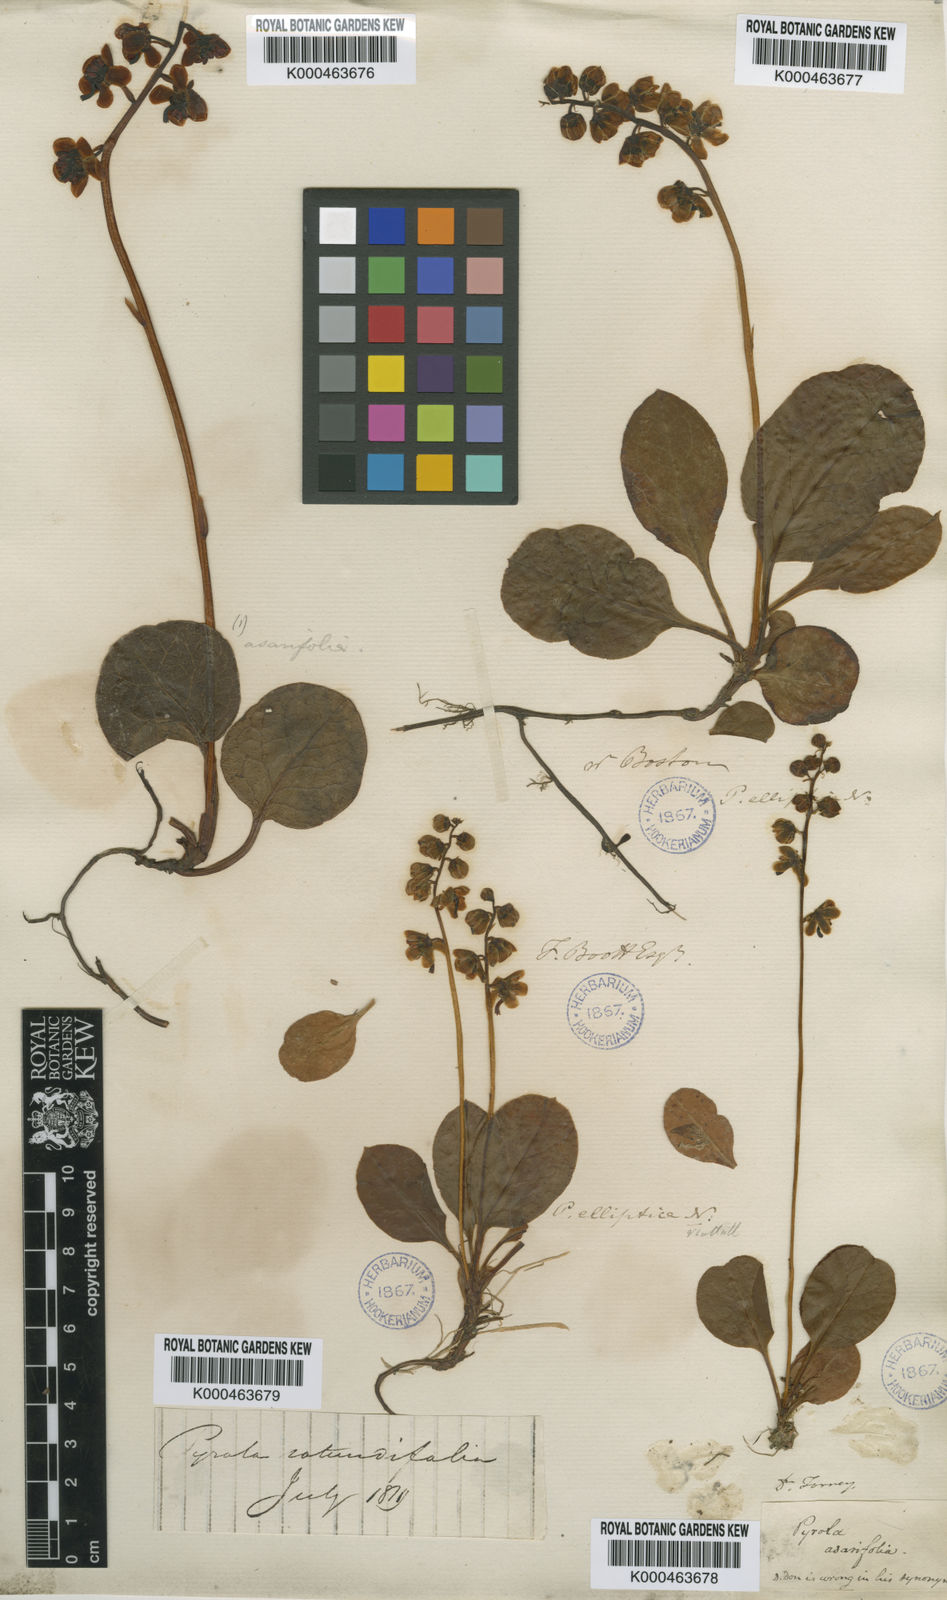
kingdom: Plantae
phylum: Tracheophyta
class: Magnoliopsida
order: Ericales
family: Ericaceae
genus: Pyrola
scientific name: Pyrola elliptica
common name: Shinleaf
